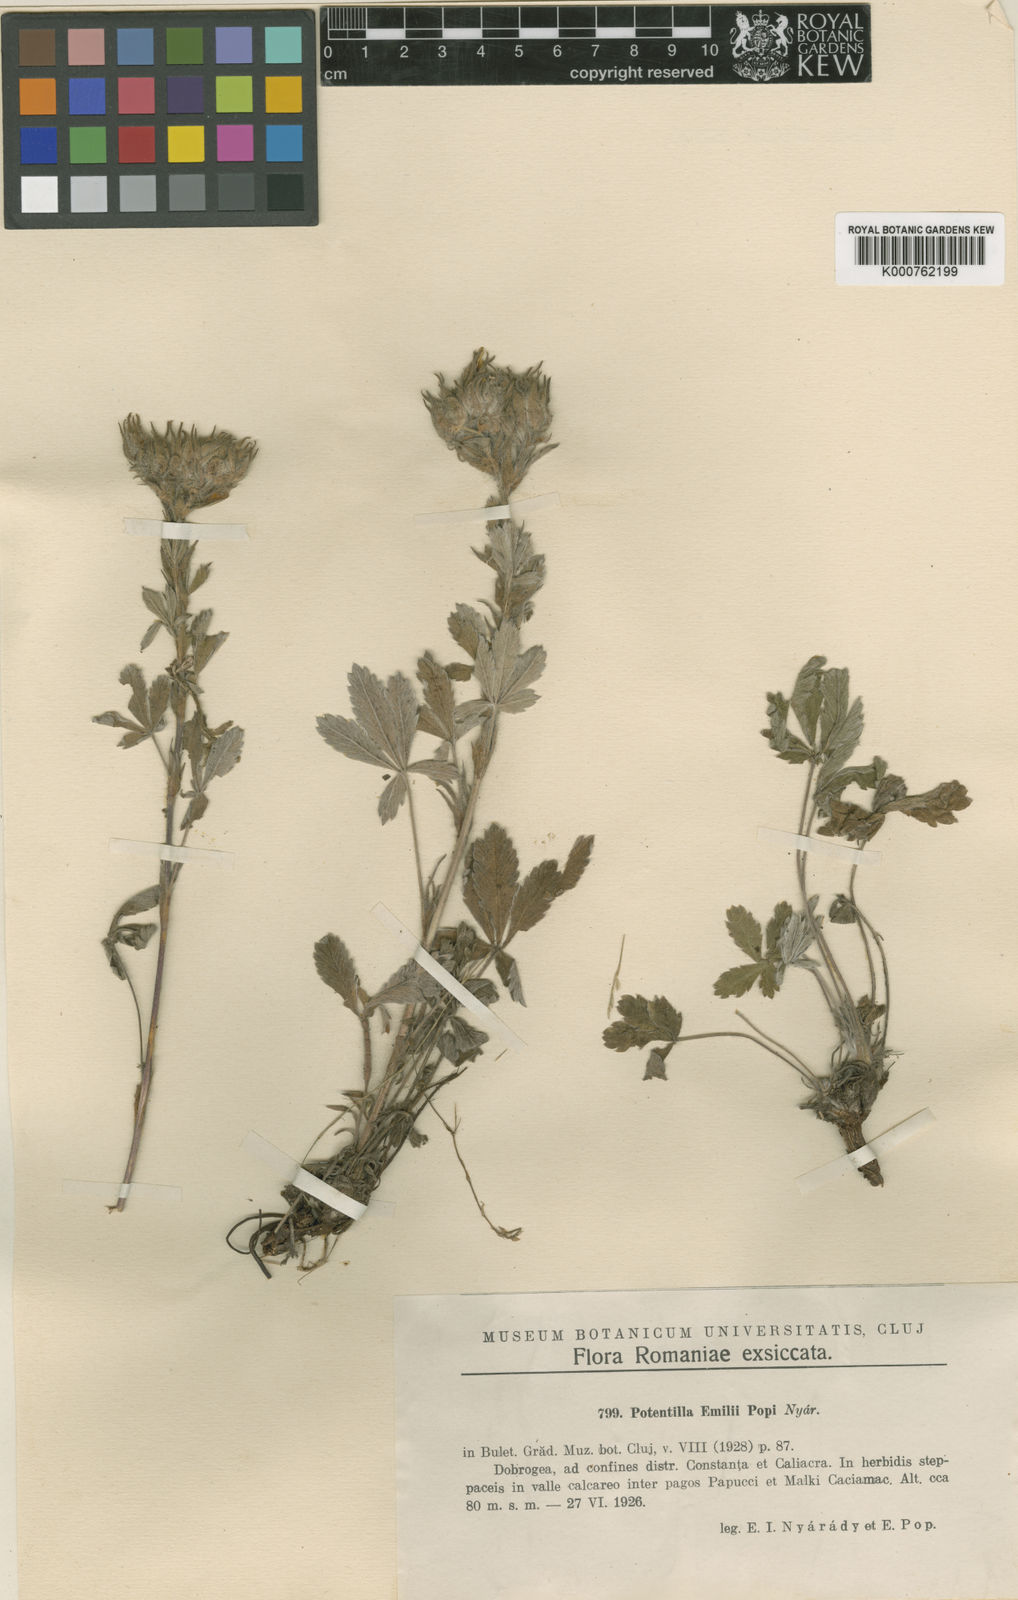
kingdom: Plantae
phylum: Tracheophyta
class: Magnoliopsida
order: Rosales
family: Rosaceae
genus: Potentilla
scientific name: Potentilla
